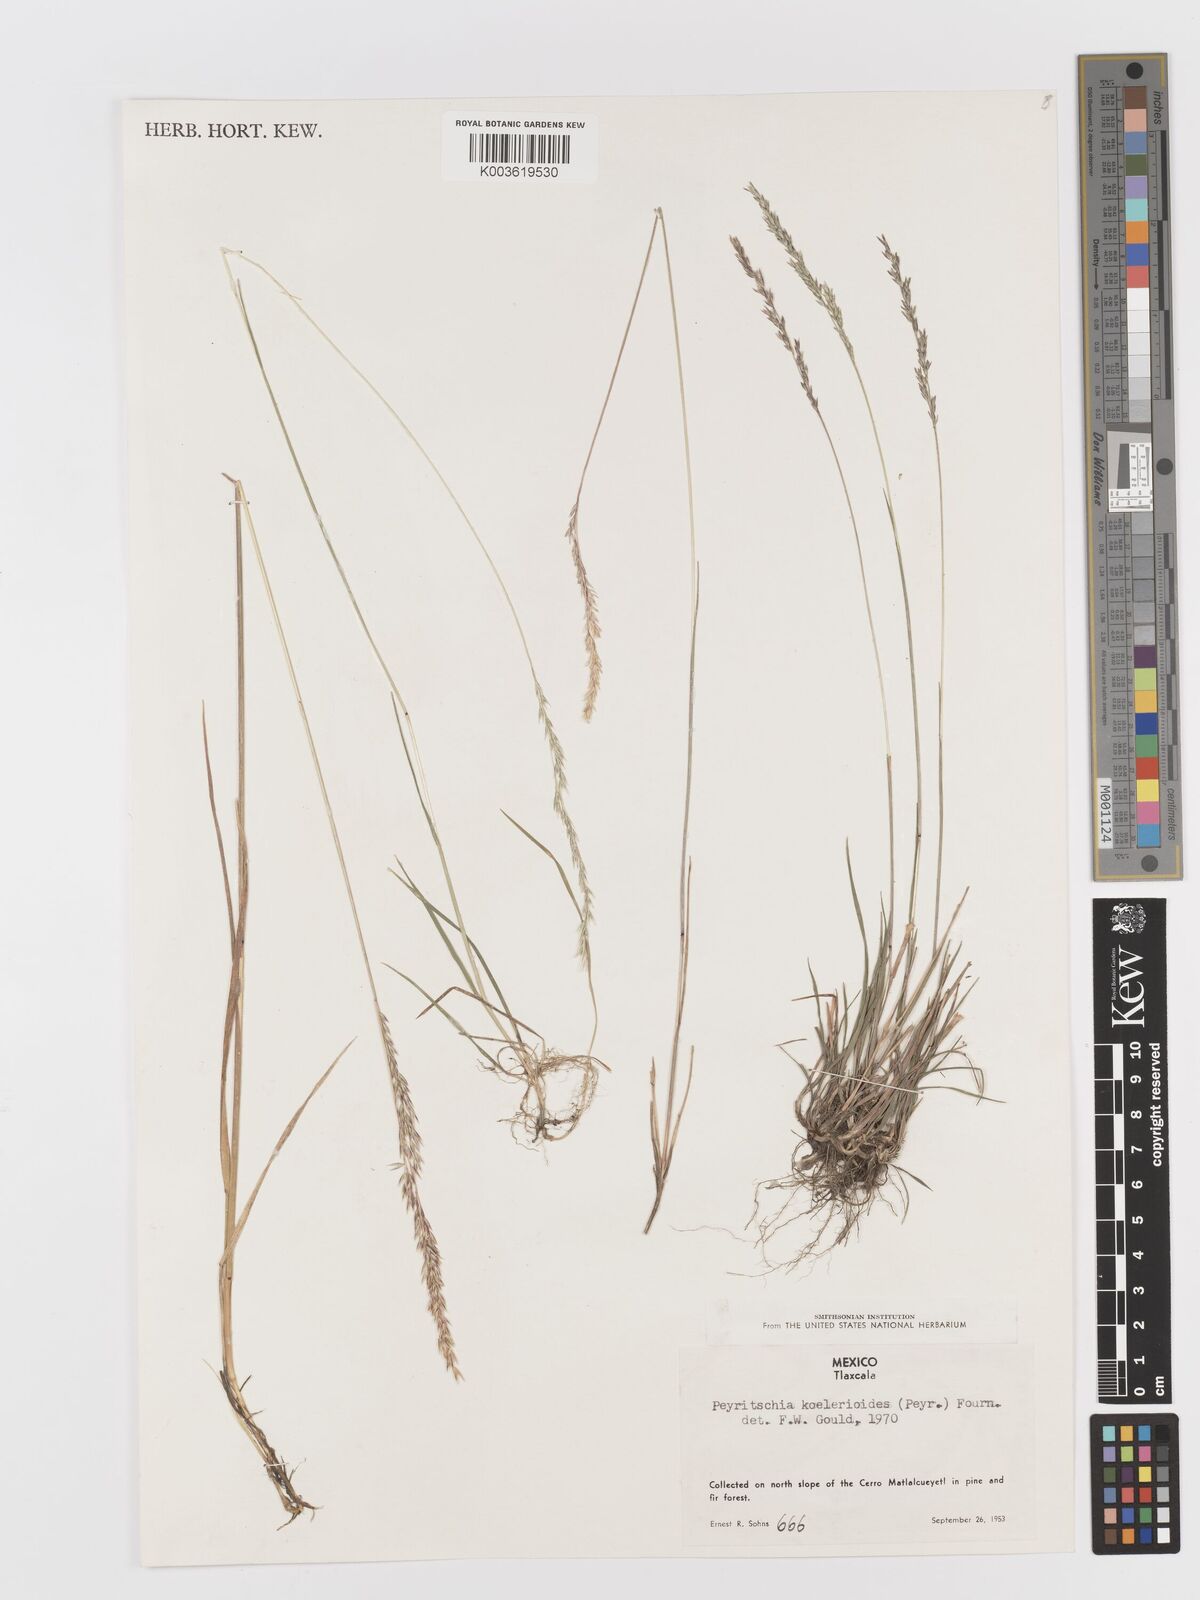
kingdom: Plantae
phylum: Tracheophyta
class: Liliopsida
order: Poales
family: Poaceae
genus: Peyritschia
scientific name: Peyritschia koelerioides
